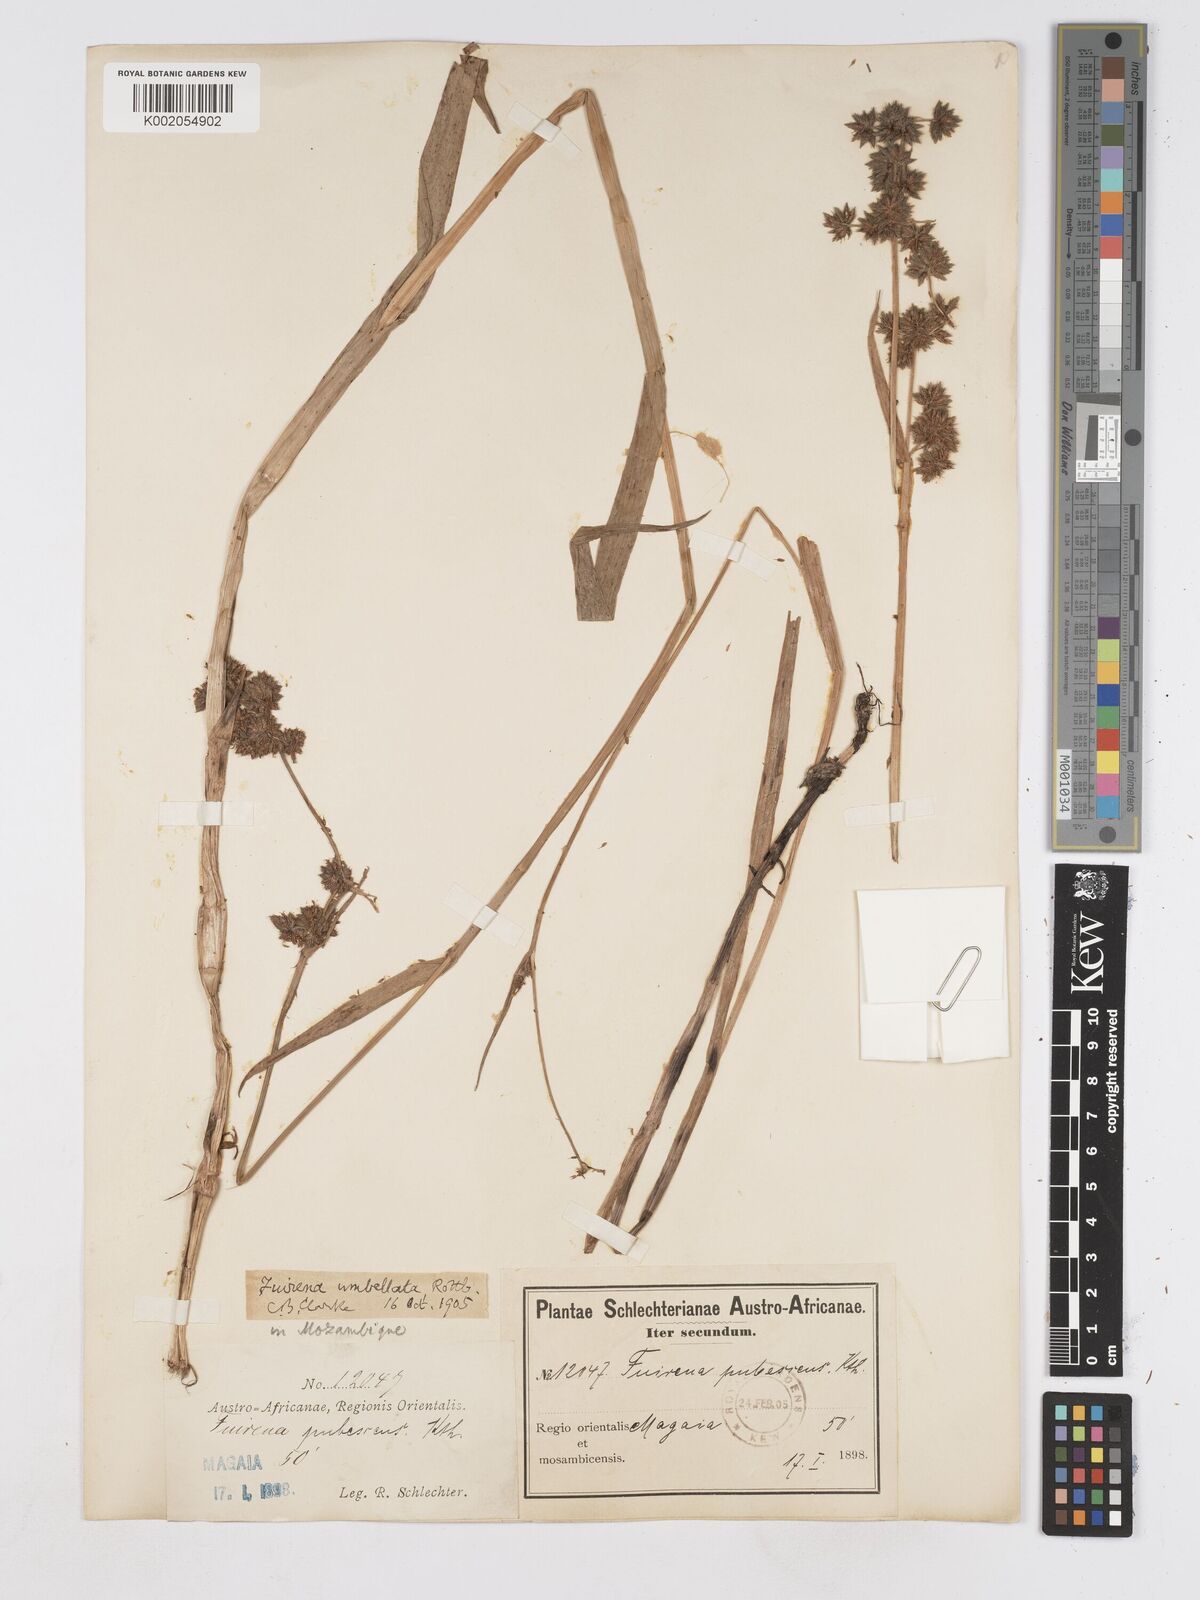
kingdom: Plantae
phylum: Tracheophyta
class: Liliopsida
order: Poales
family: Cyperaceae
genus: Fuirena
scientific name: Fuirena umbellata
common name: Yefen
